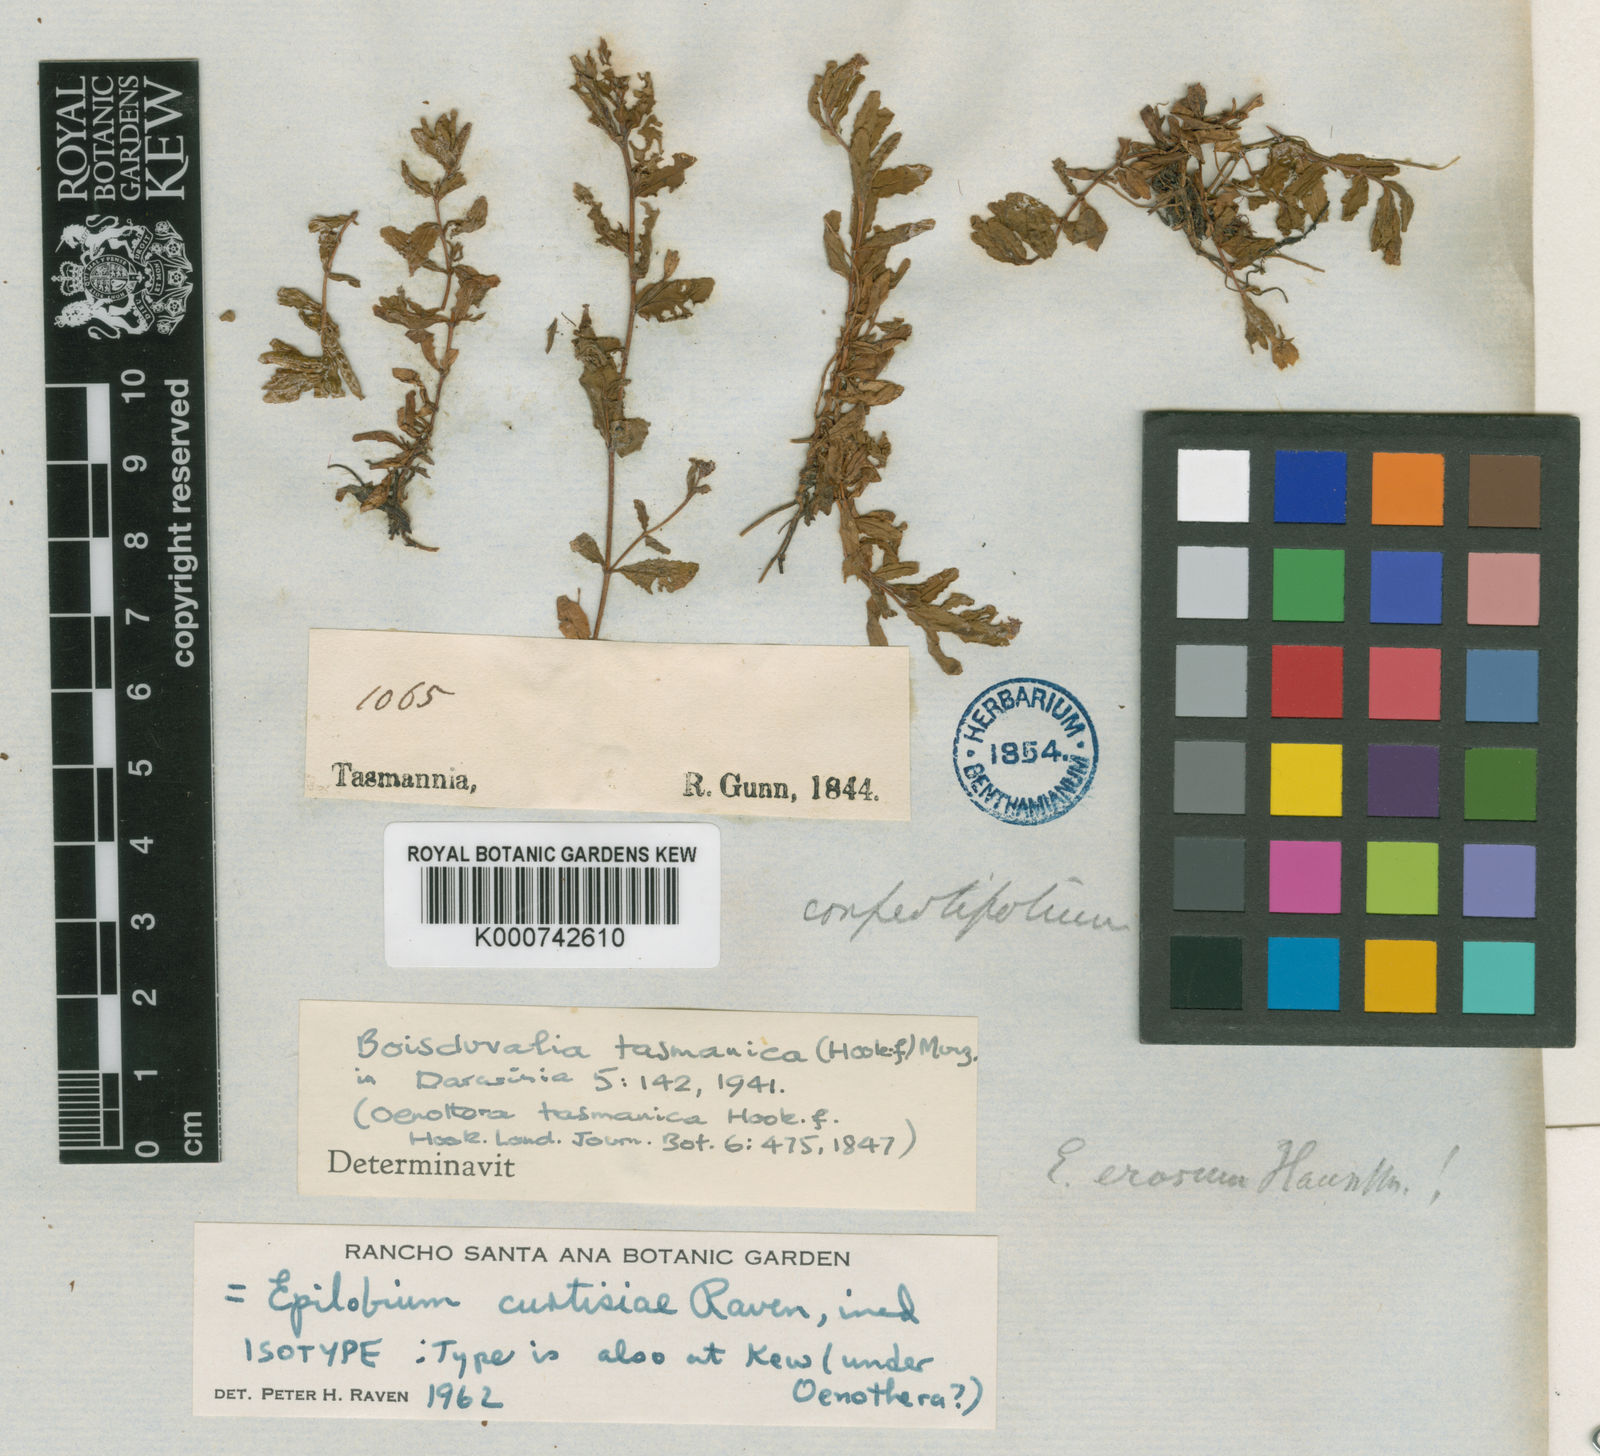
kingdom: Plantae
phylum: Tracheophyta
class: Magnoliopsida
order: Myrtales
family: Onagraceae
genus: Epilobium
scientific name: Epilobium curtisiae
